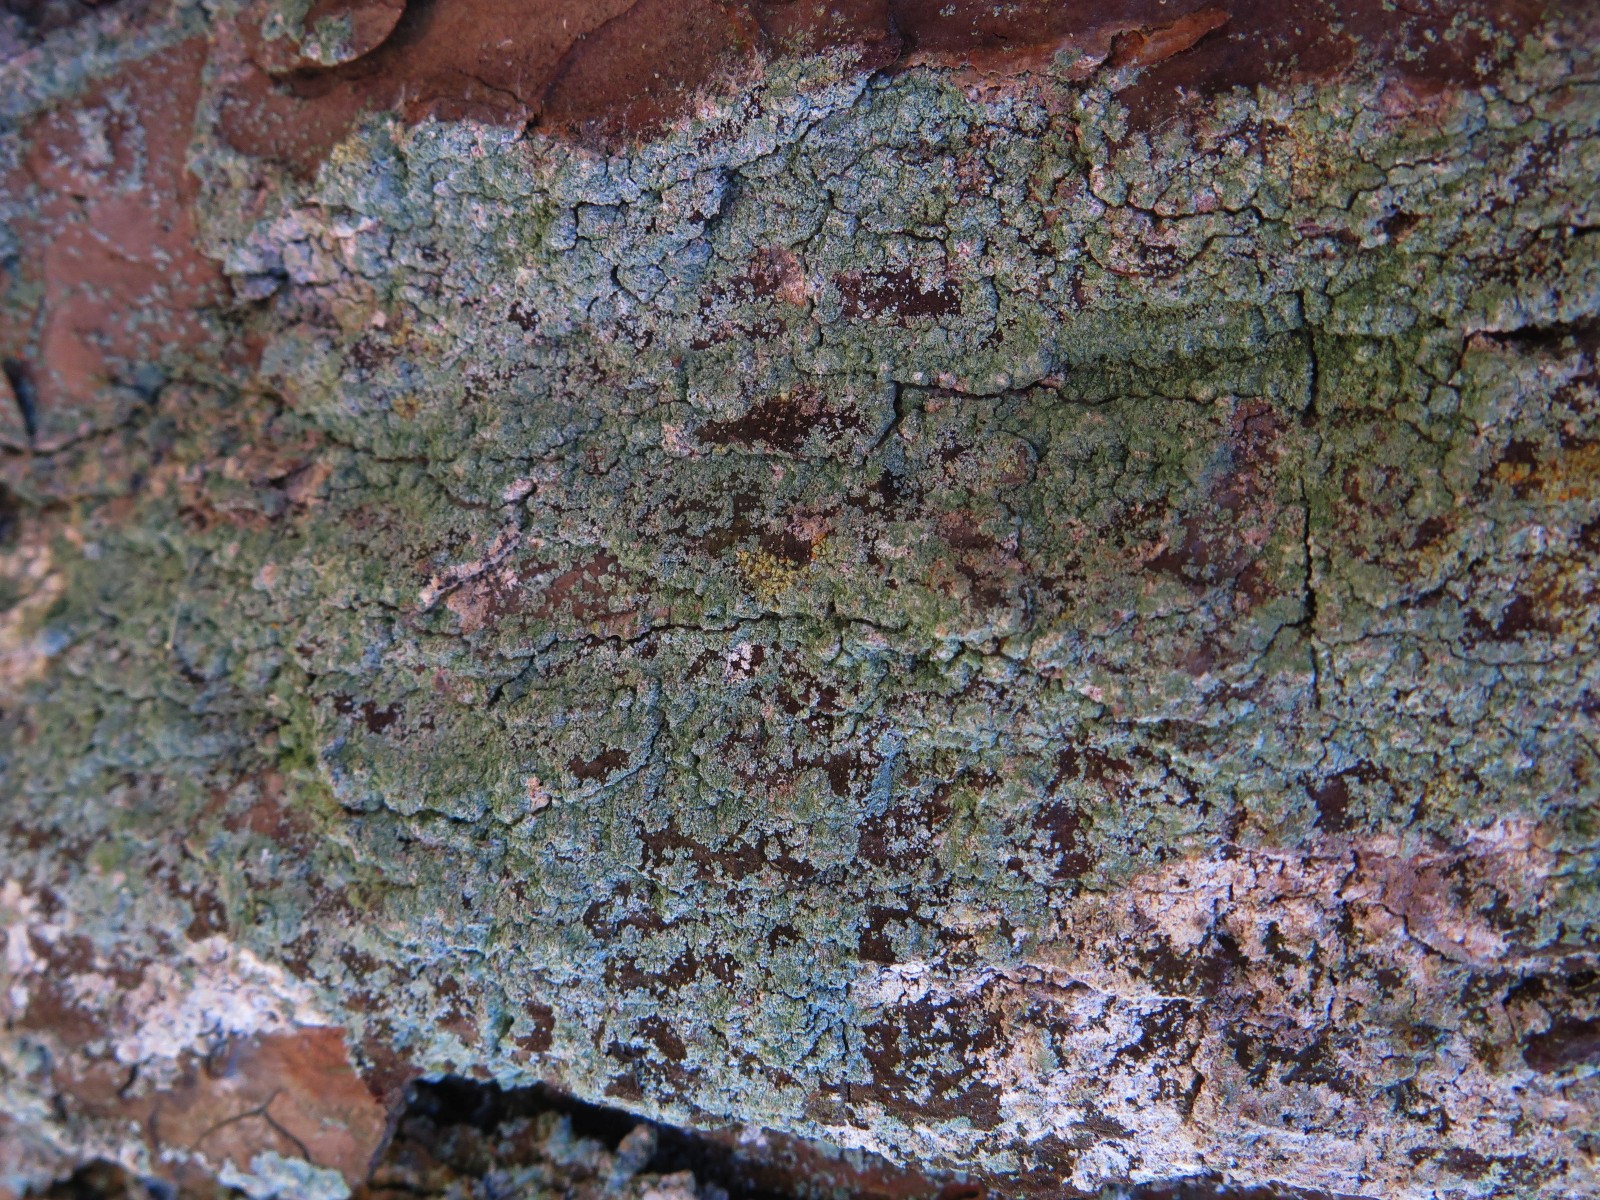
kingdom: Fungi
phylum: Ascomycota
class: Lecanoromycetes
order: Lecanorales
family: Stereocaulaceae
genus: Lepraria
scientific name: Lepraria incana
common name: almindelig støvlav
